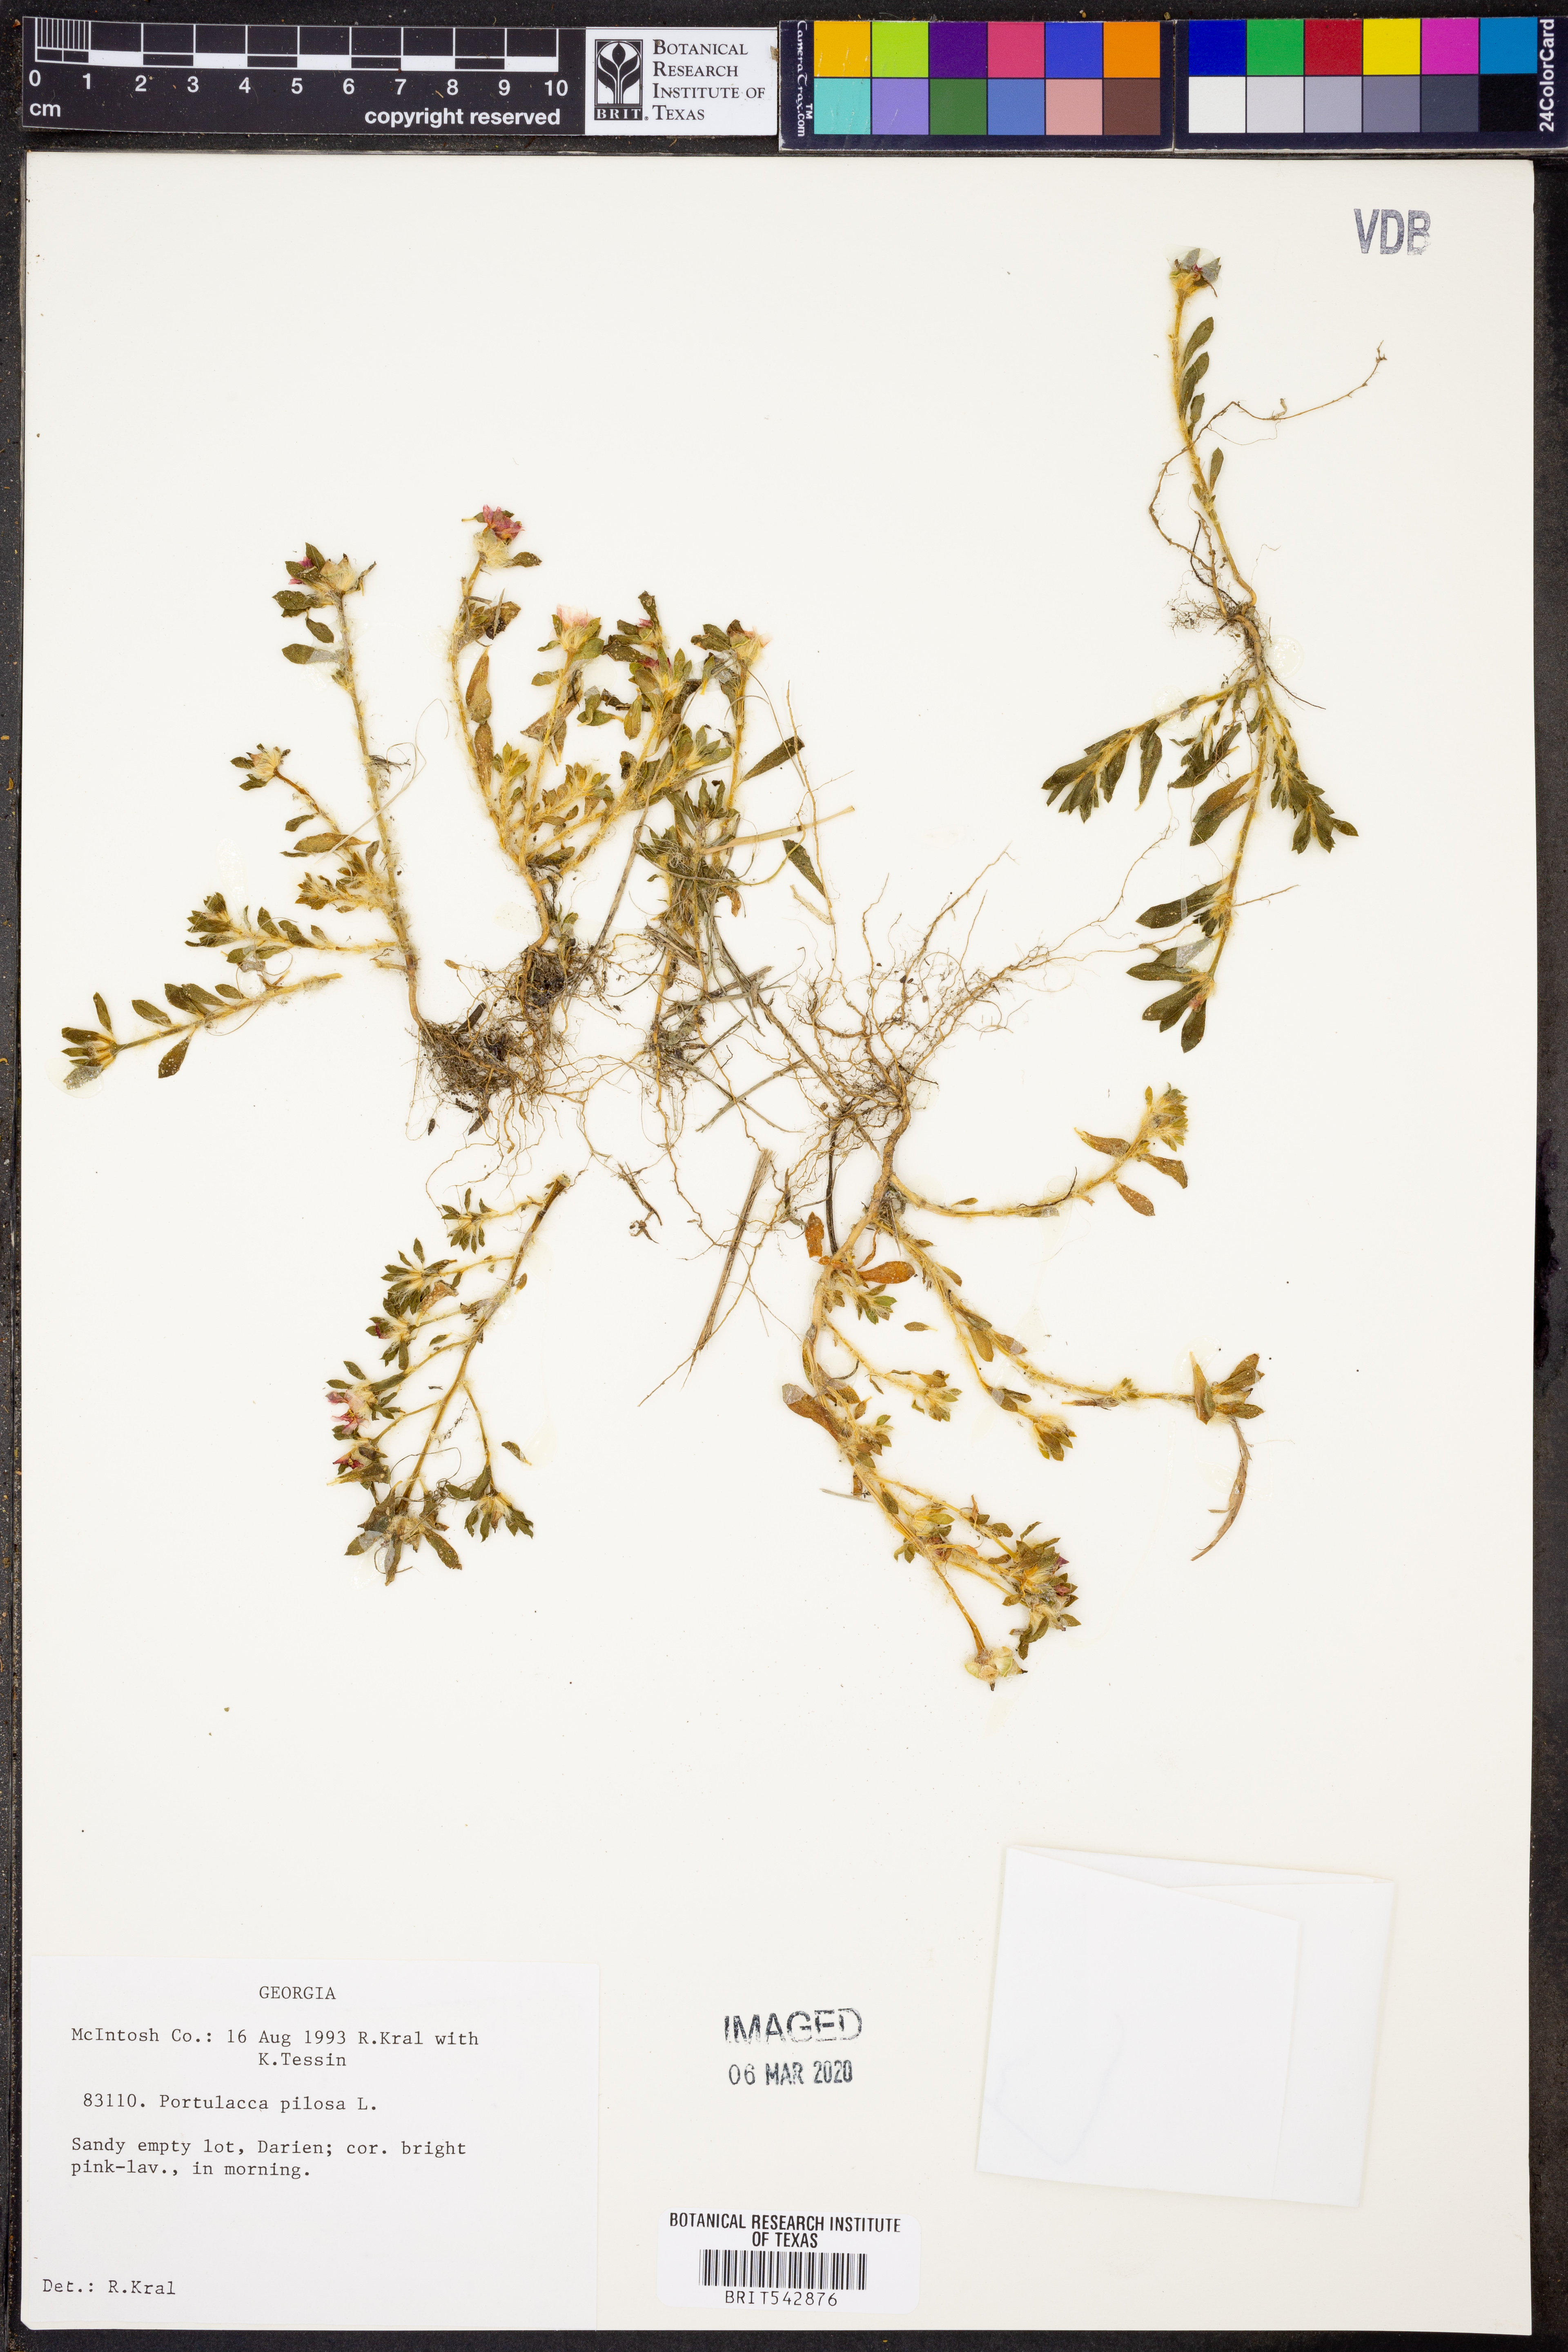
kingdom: Plantae
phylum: Tracheophyta
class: Magnoliopsida
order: Caryophyllales
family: Portulacaceae
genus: Portulaca
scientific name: Portulaca pilosa
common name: Kiss me quick
